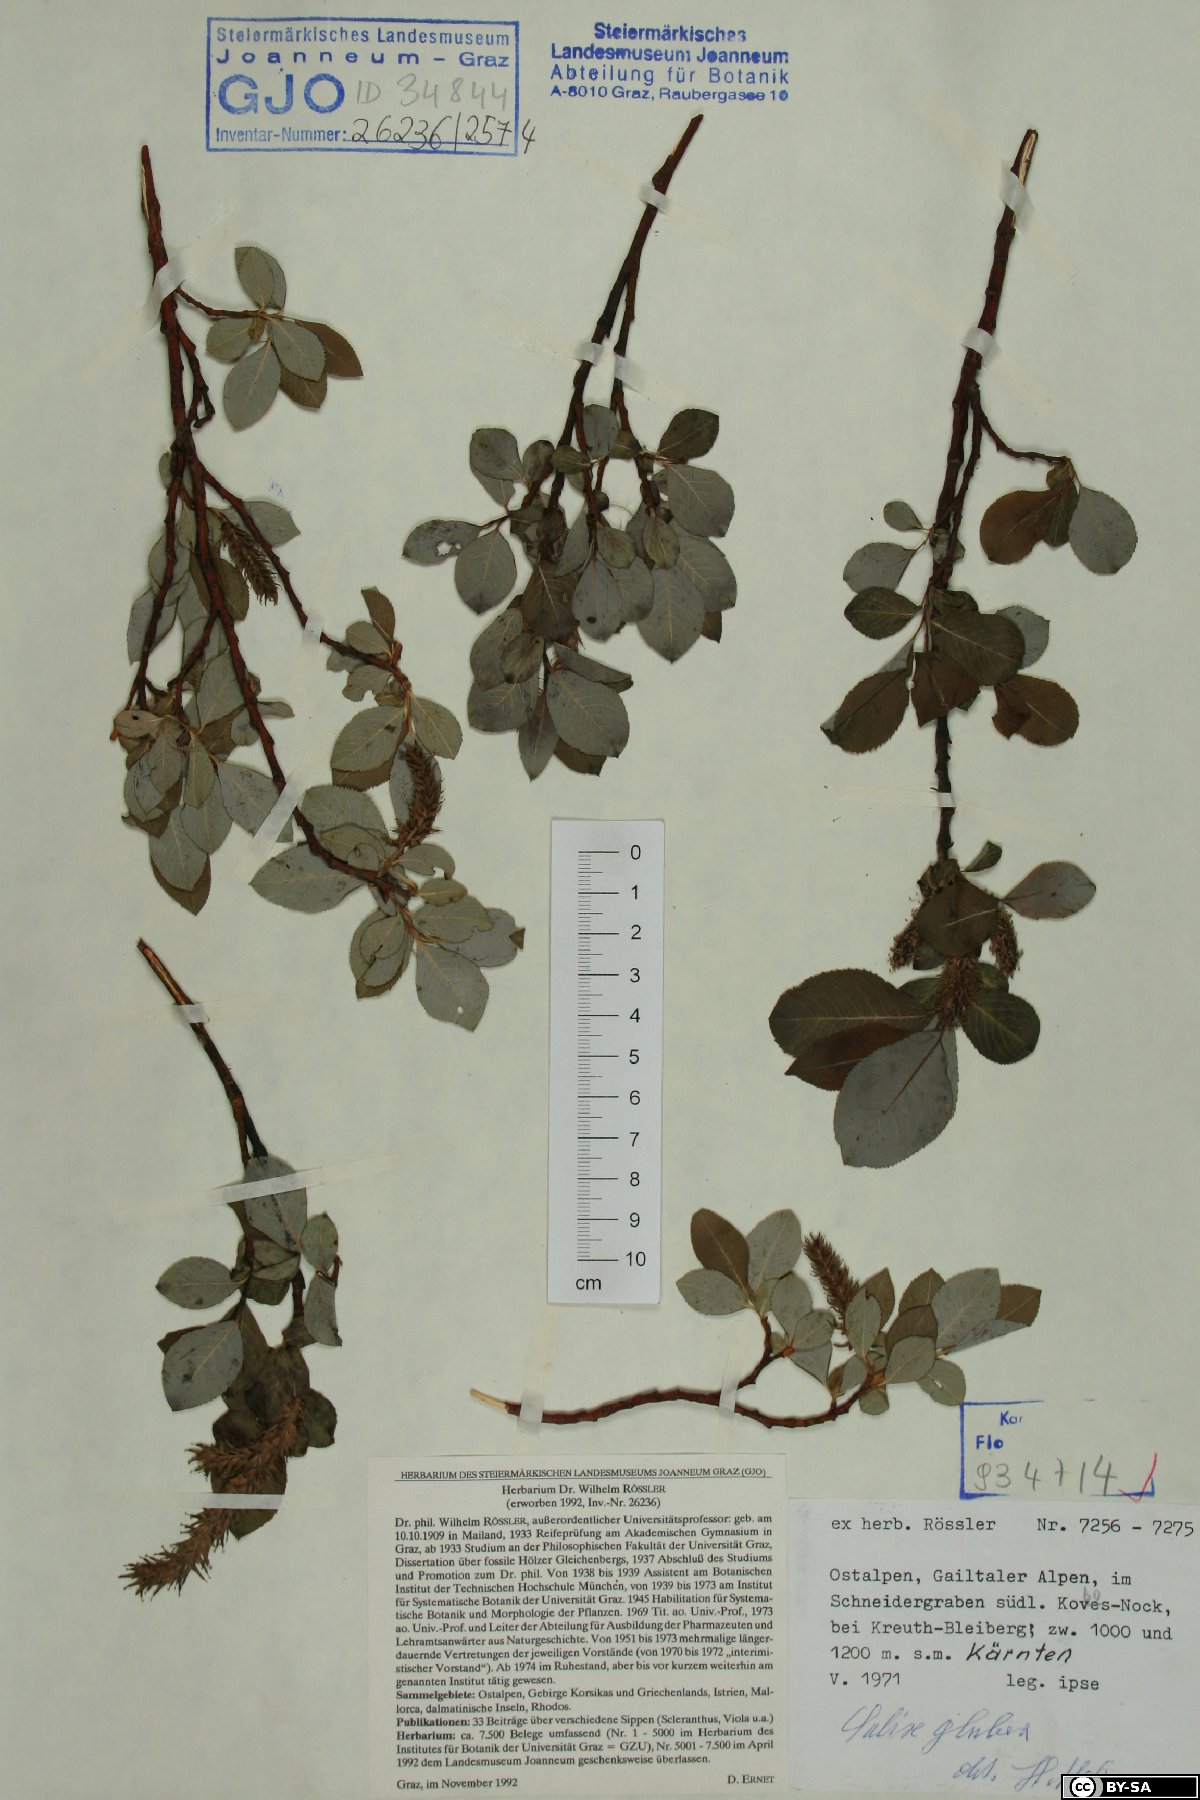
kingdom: Plantae
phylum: Tracheophyta
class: Magnoliopsida
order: Malpighiales
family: Salicaceae
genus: Salix
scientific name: Salix glabra
